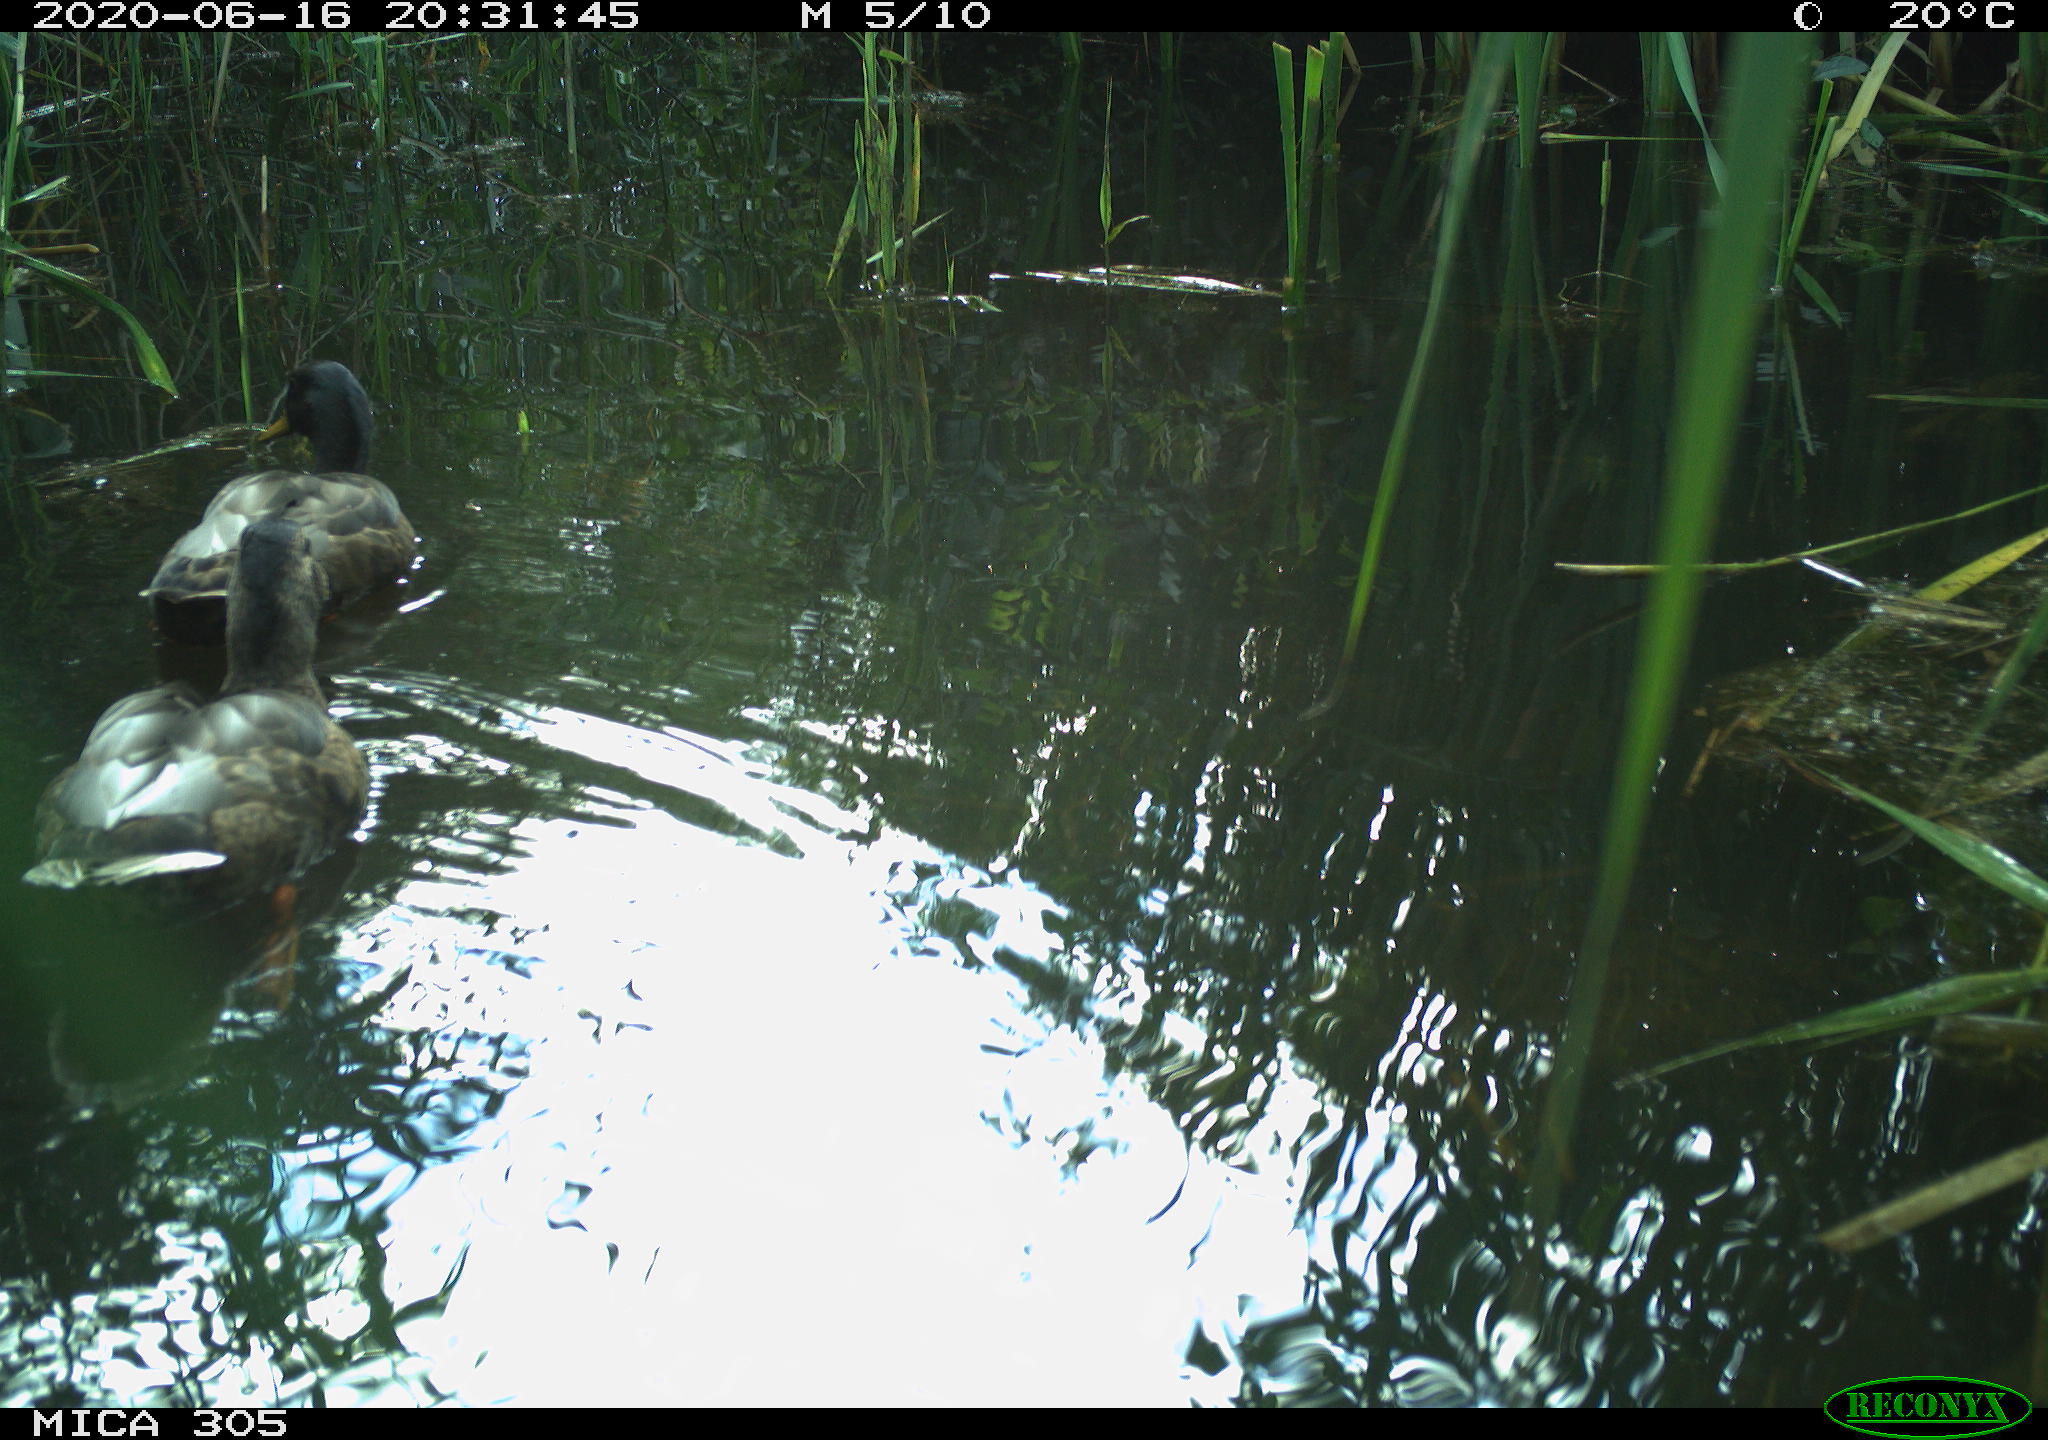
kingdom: Animalia
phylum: Chordata
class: Aves
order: Anseriformes
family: Anatidae
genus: Anas
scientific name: Anas platyrhynchos
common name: Mallard
